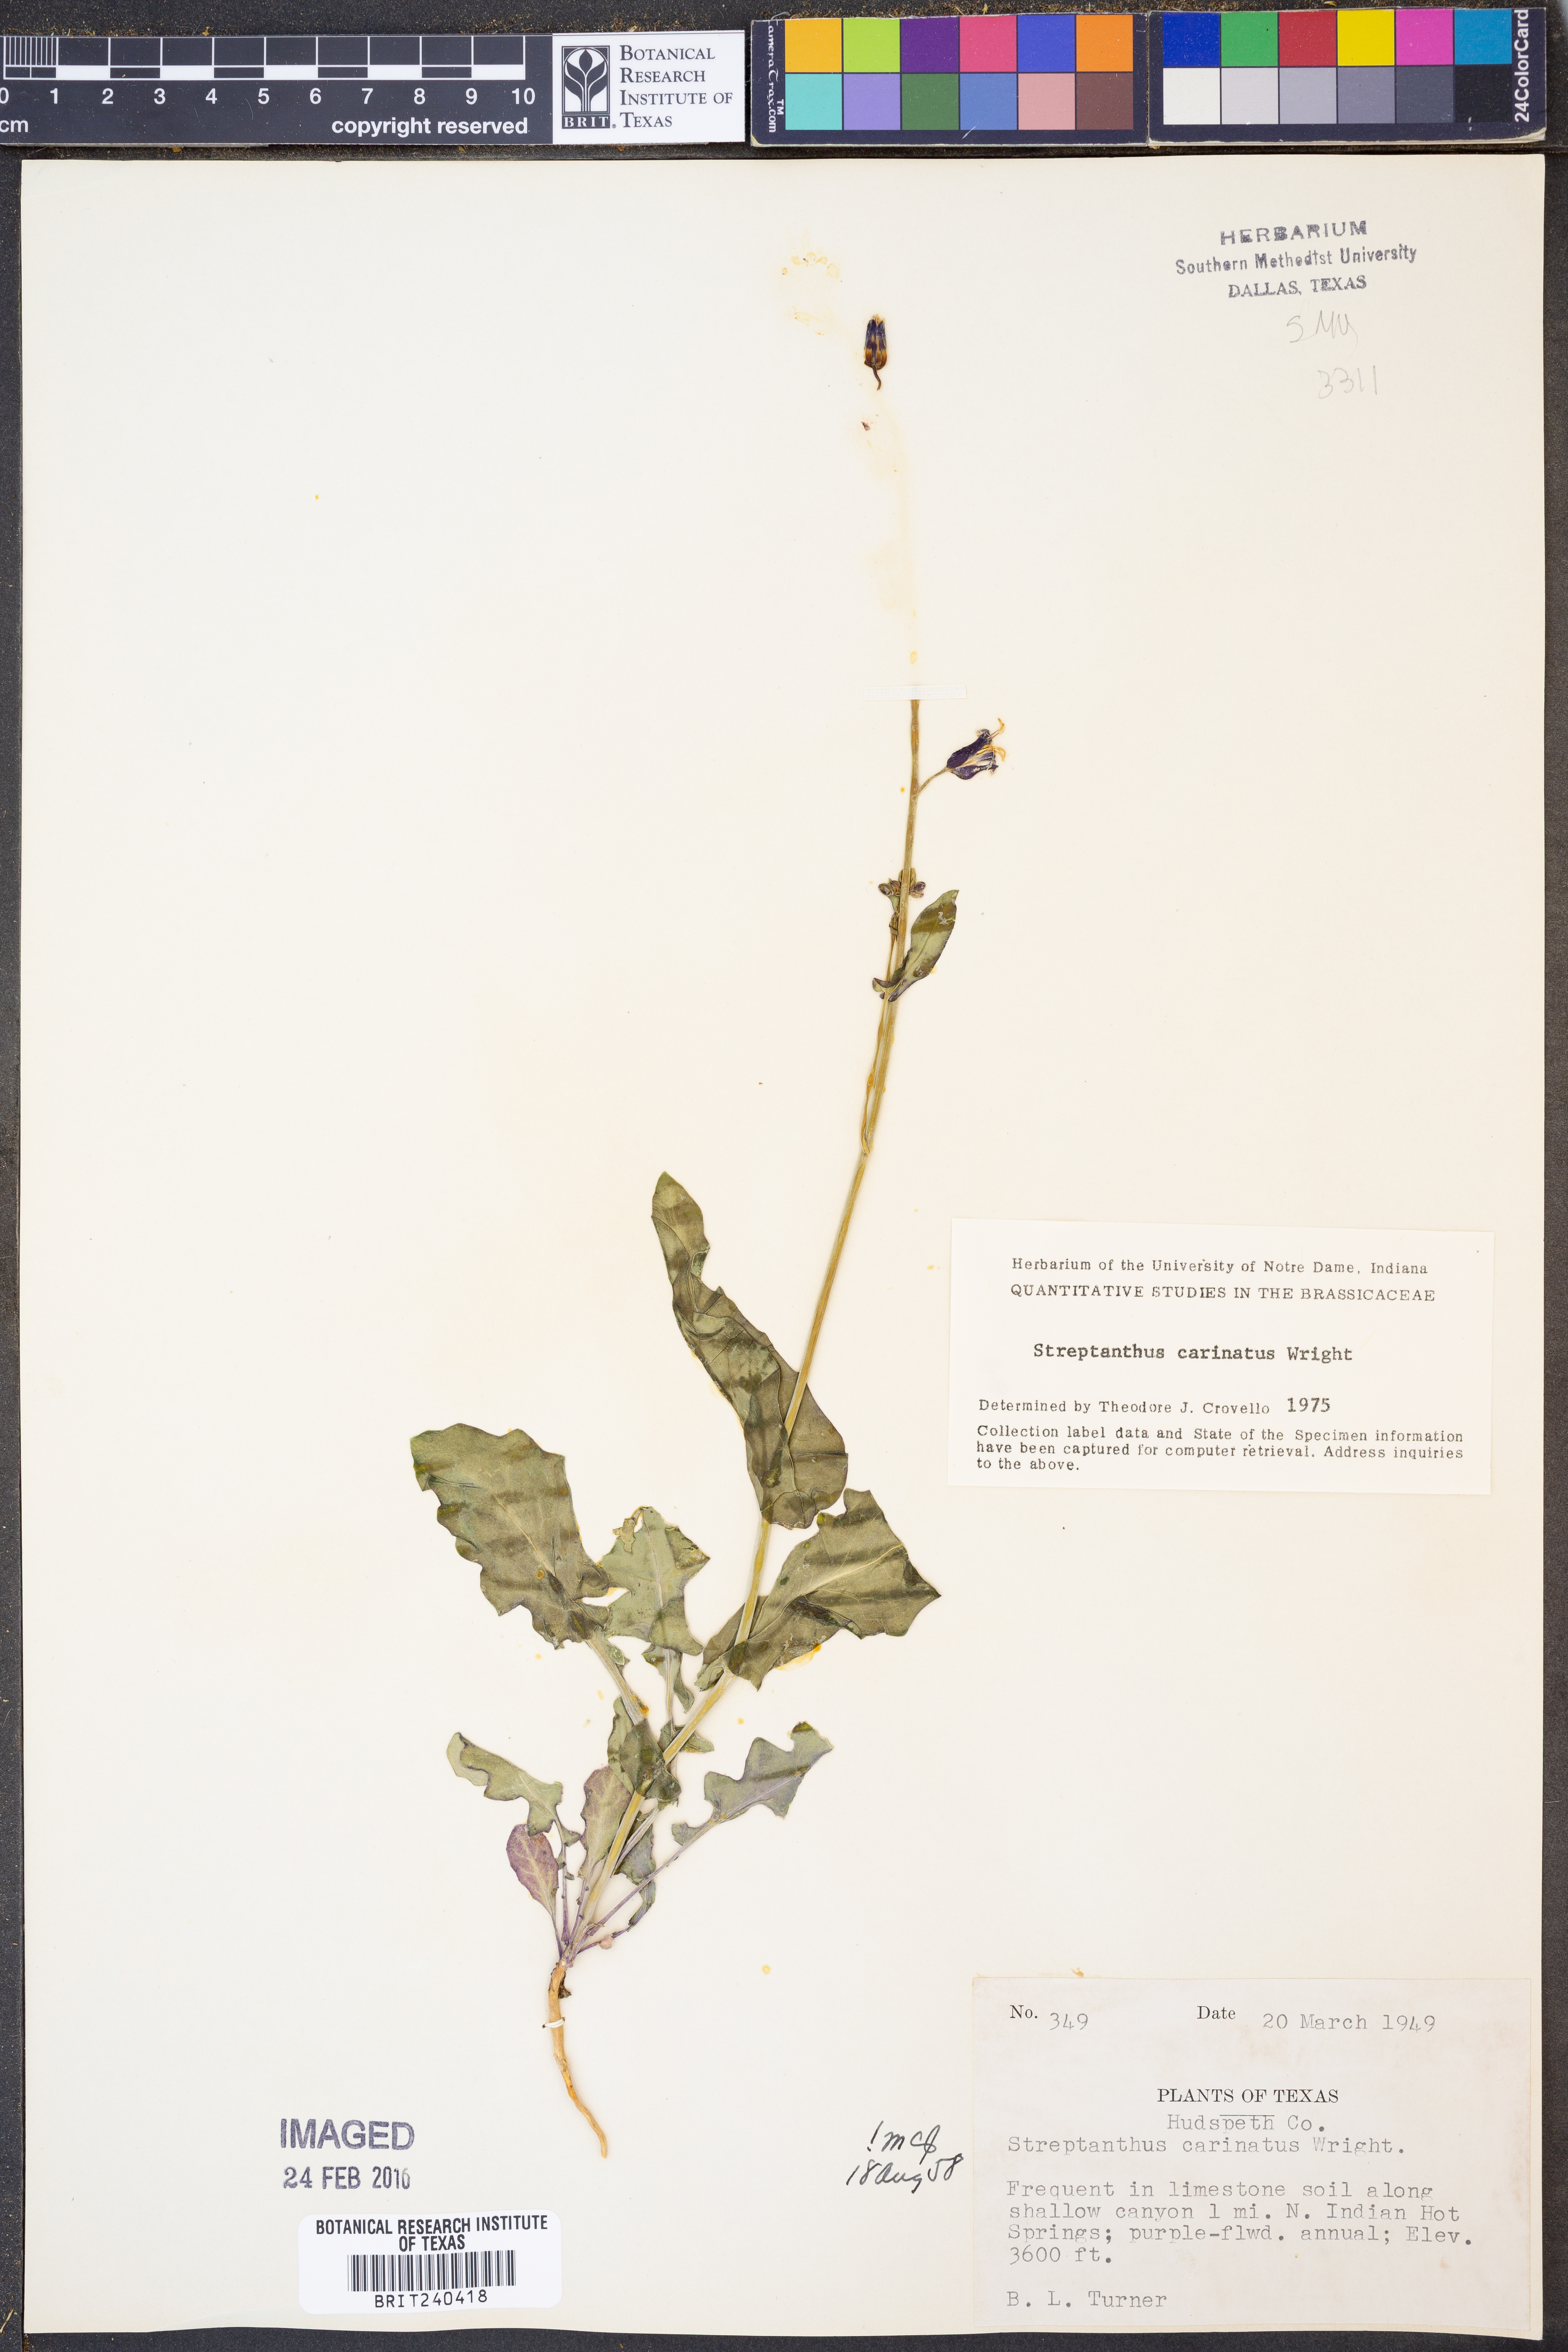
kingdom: Plantae
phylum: Tracheophyta
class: Magnoliopsida
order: Brassicales
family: Brassicaceae
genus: Streptanthus
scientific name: Streptanthus carinatus
